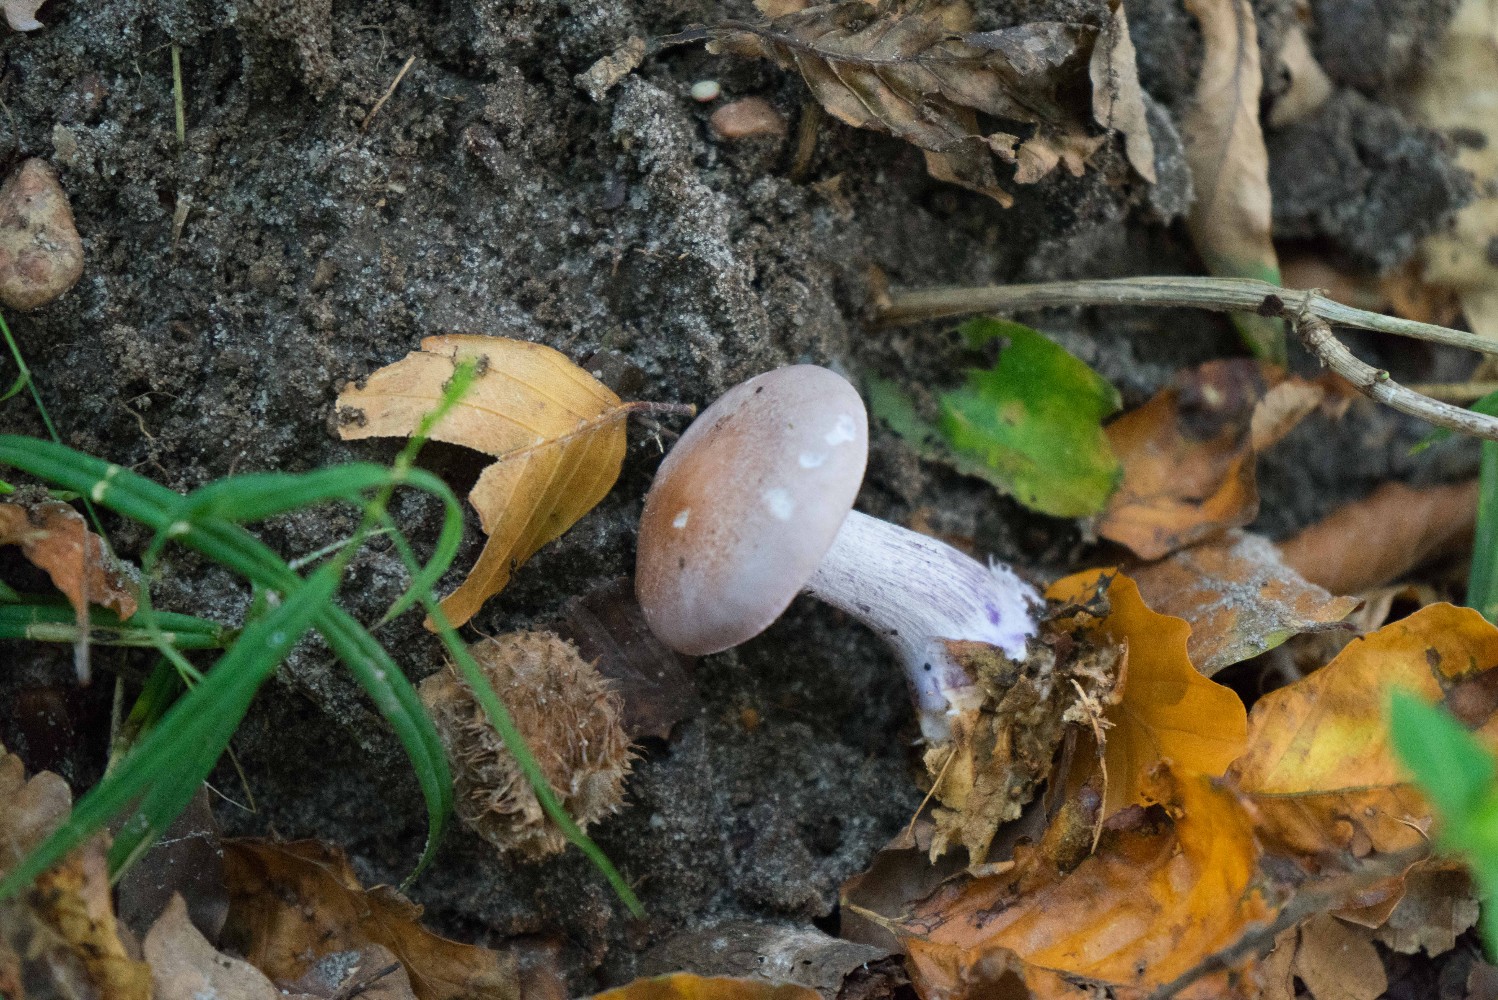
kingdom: Fungi
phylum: Basidiomycota
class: Agaricomycetes
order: Agaricales
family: Tricholomataceae
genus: Lepista
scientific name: Lepista nuda
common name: violet hekseringshat
